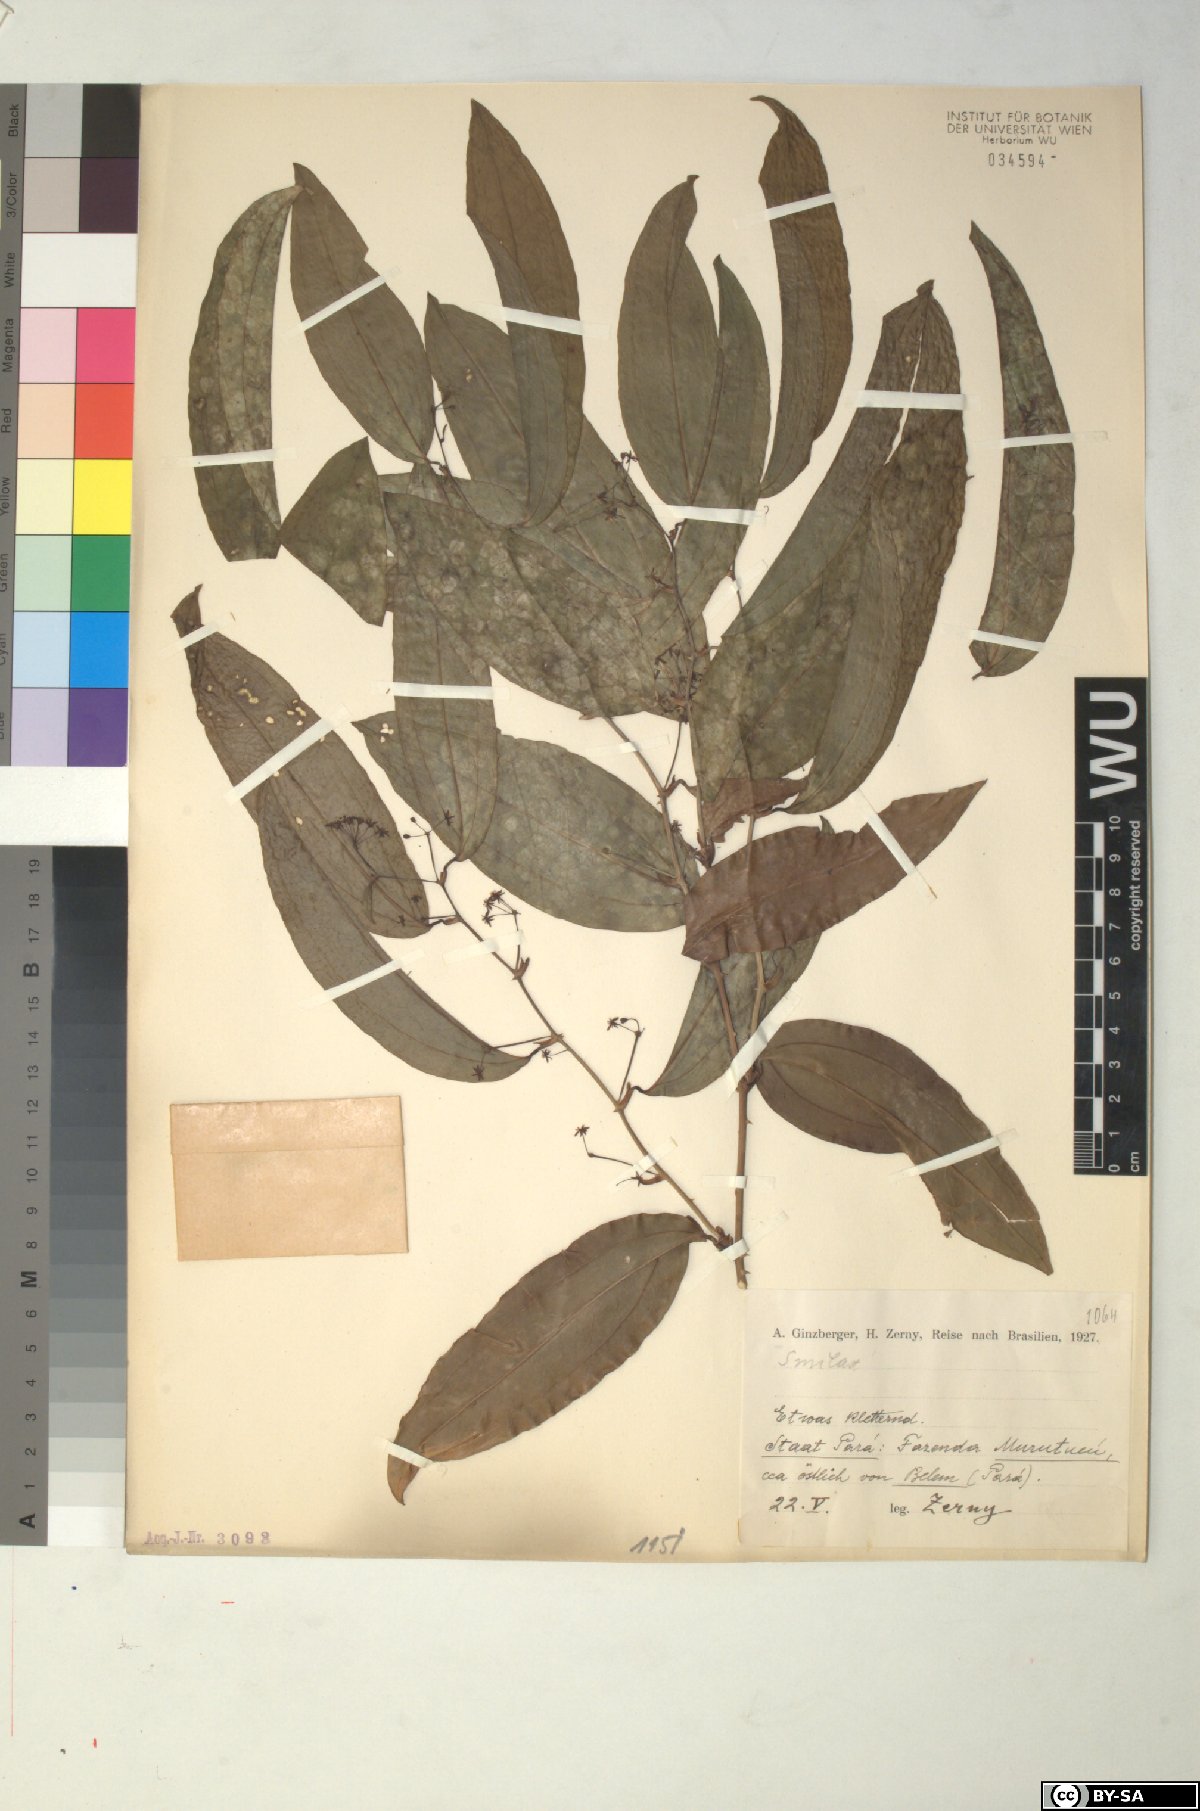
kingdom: Plantae
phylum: Tracheophyta
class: Liliopsida
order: Liliales
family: Smilacaceae
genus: Smilax
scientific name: Smilax
